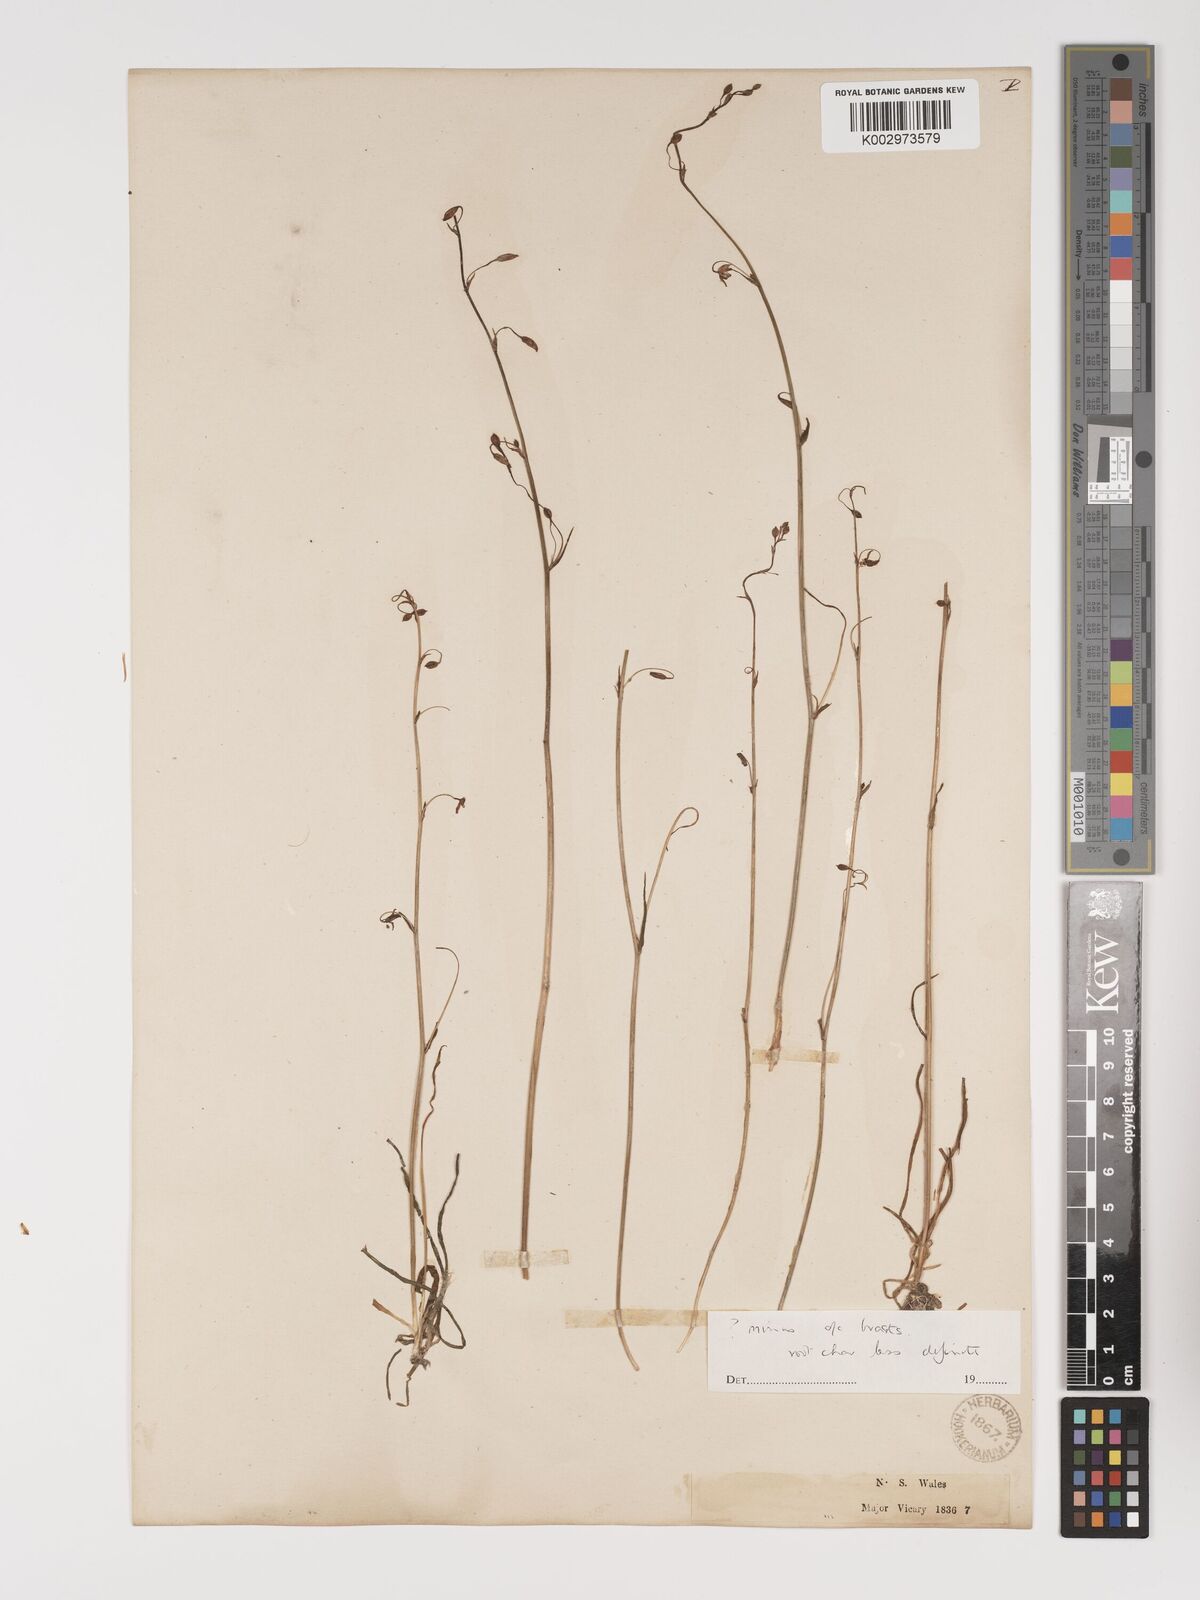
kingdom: Plantae
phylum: Tracheophyta
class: Liliopsida
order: Asparagales
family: Asparagaceae
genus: Arthropodium
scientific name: Arthropodium minus
